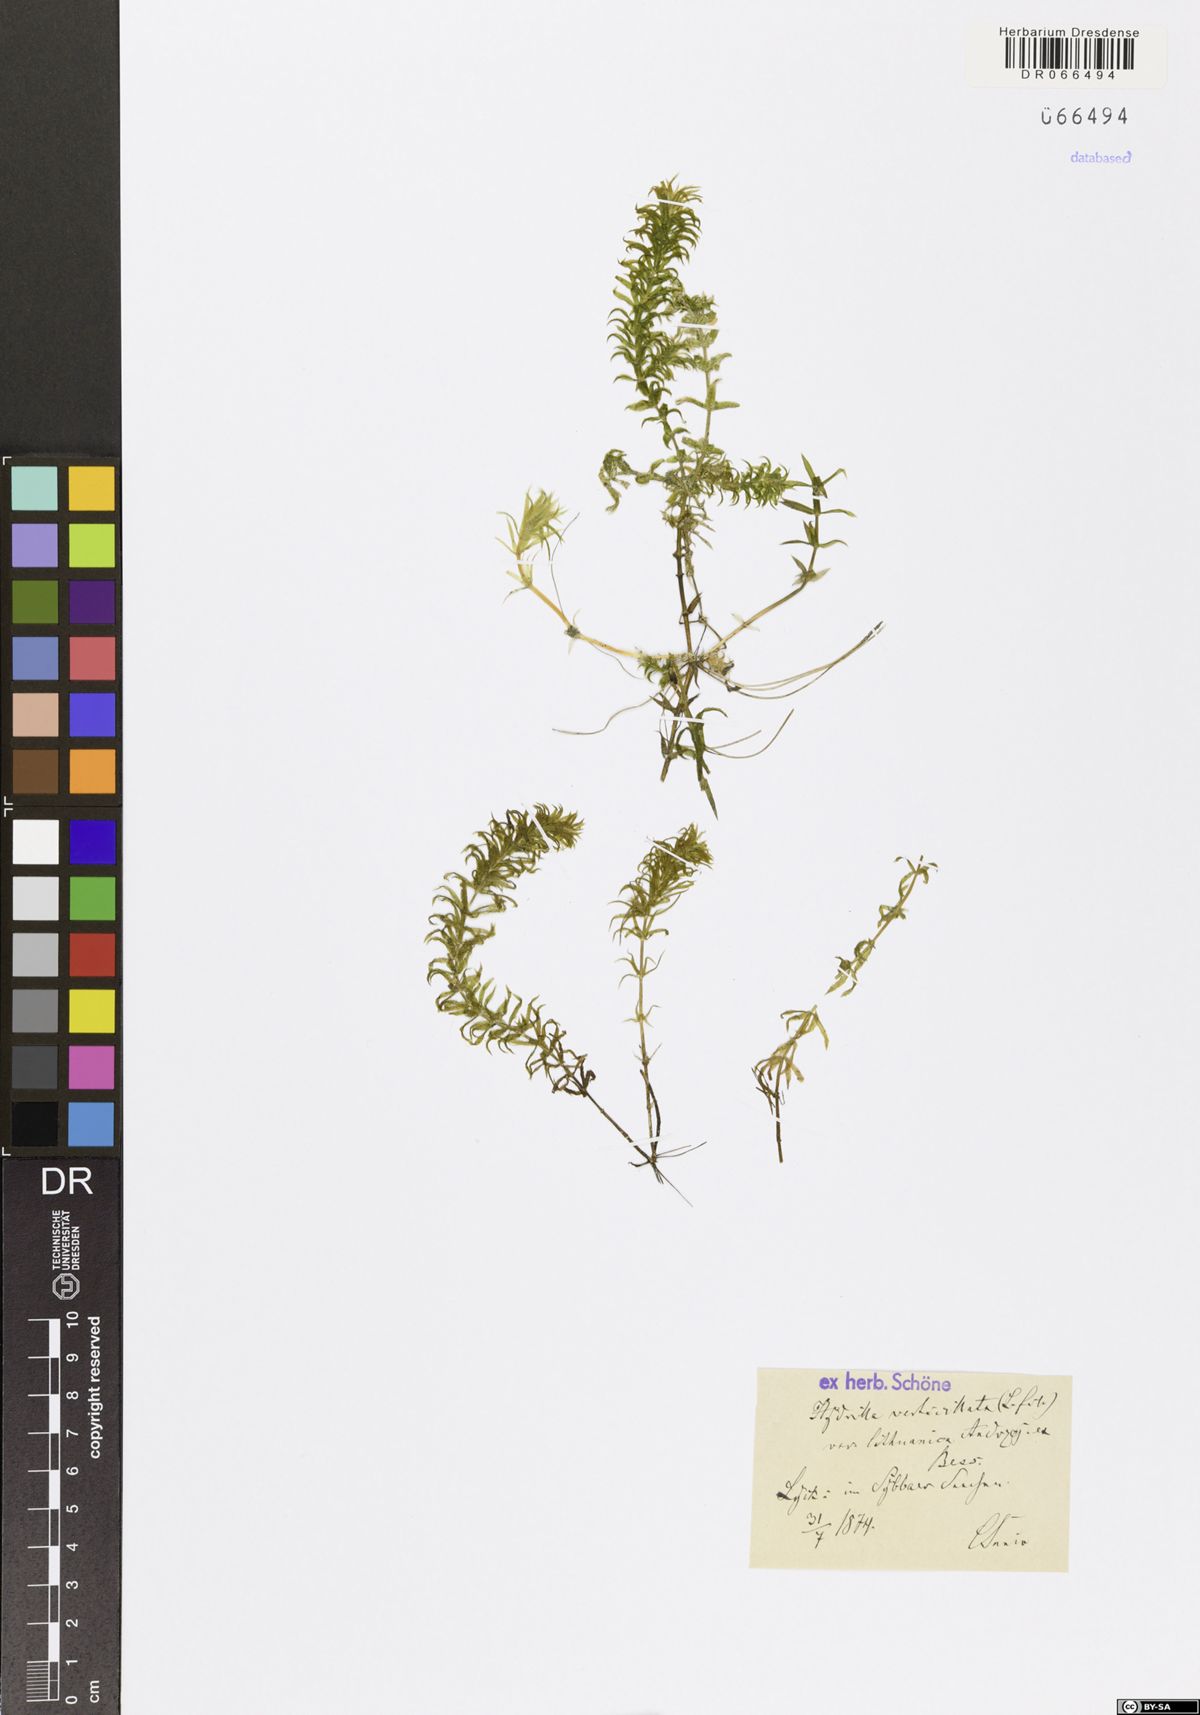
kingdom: Plantae
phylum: Tracheophyta
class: Liliopsida
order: Alismatales
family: Hydrocharitaceae
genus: Hydrilla
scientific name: Hydrilla verticillata
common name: Florida-elodea
